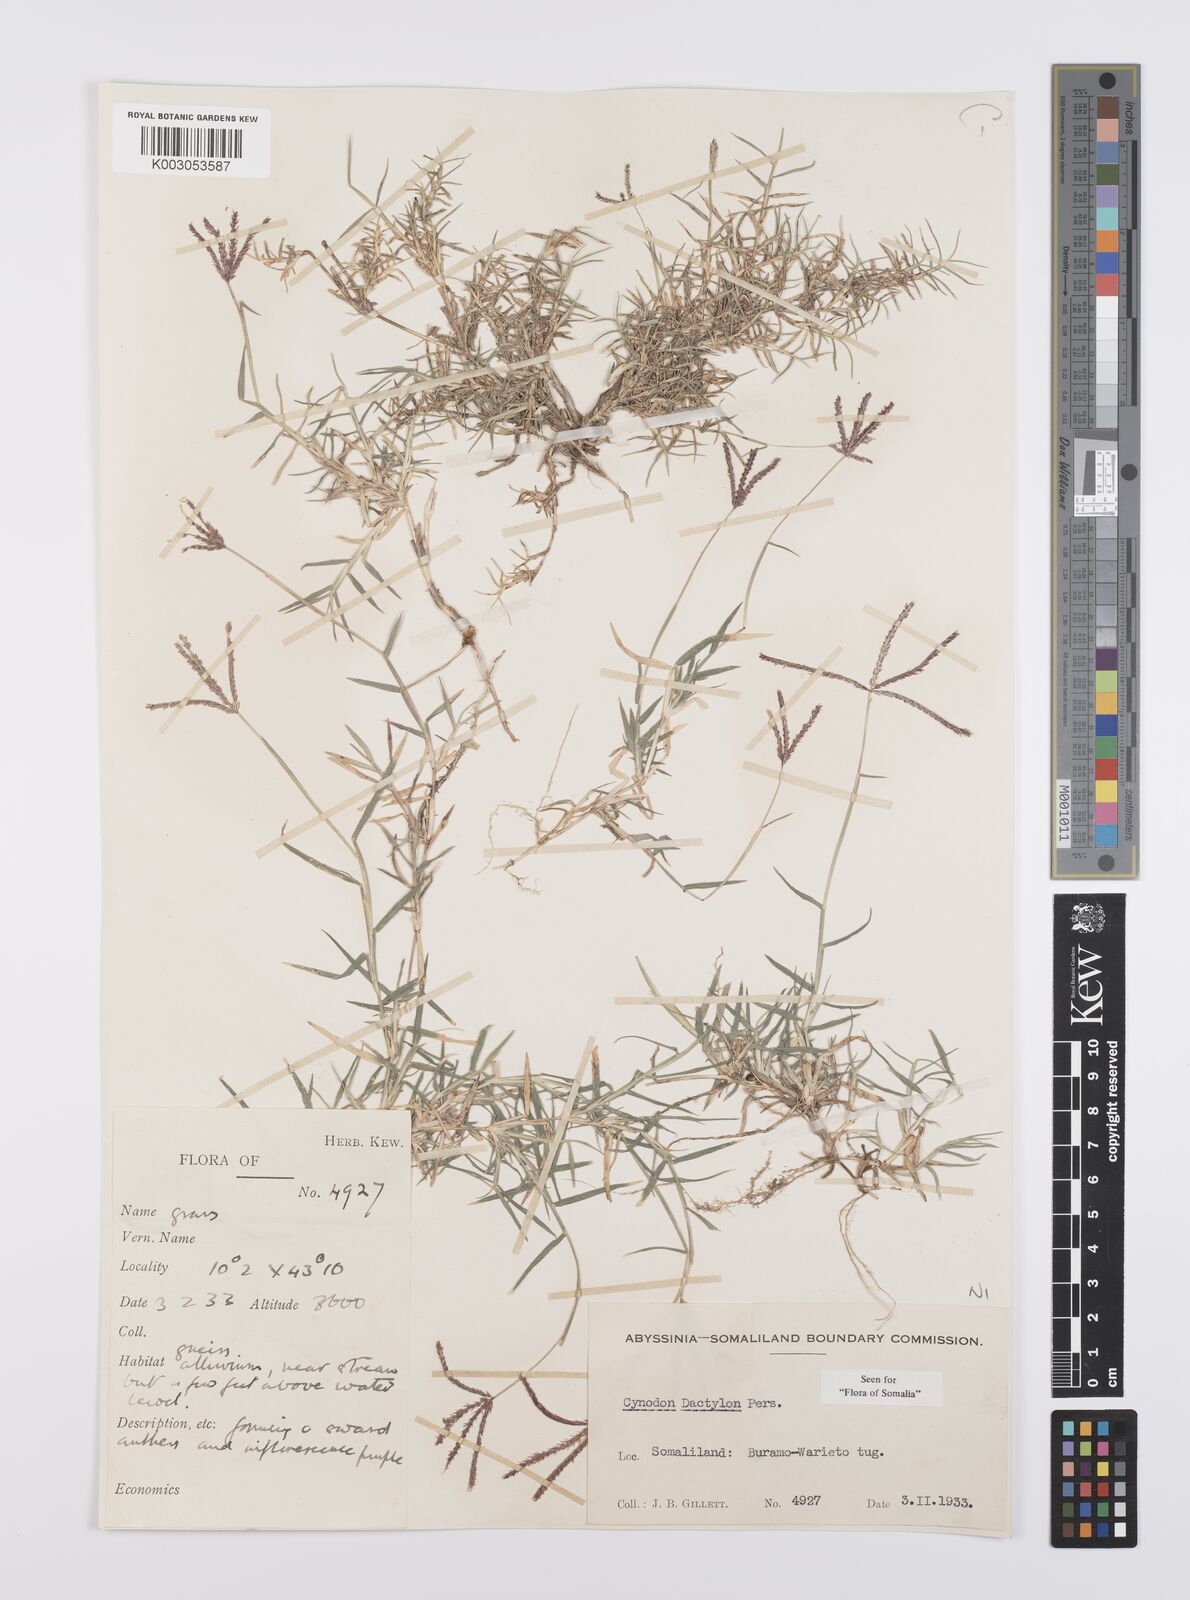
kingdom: Plantae
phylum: Tracheophyta
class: Liliopsida
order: Poales
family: Poaceae
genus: Cynodon
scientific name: Cynodon dactylon
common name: Bermuda grass
